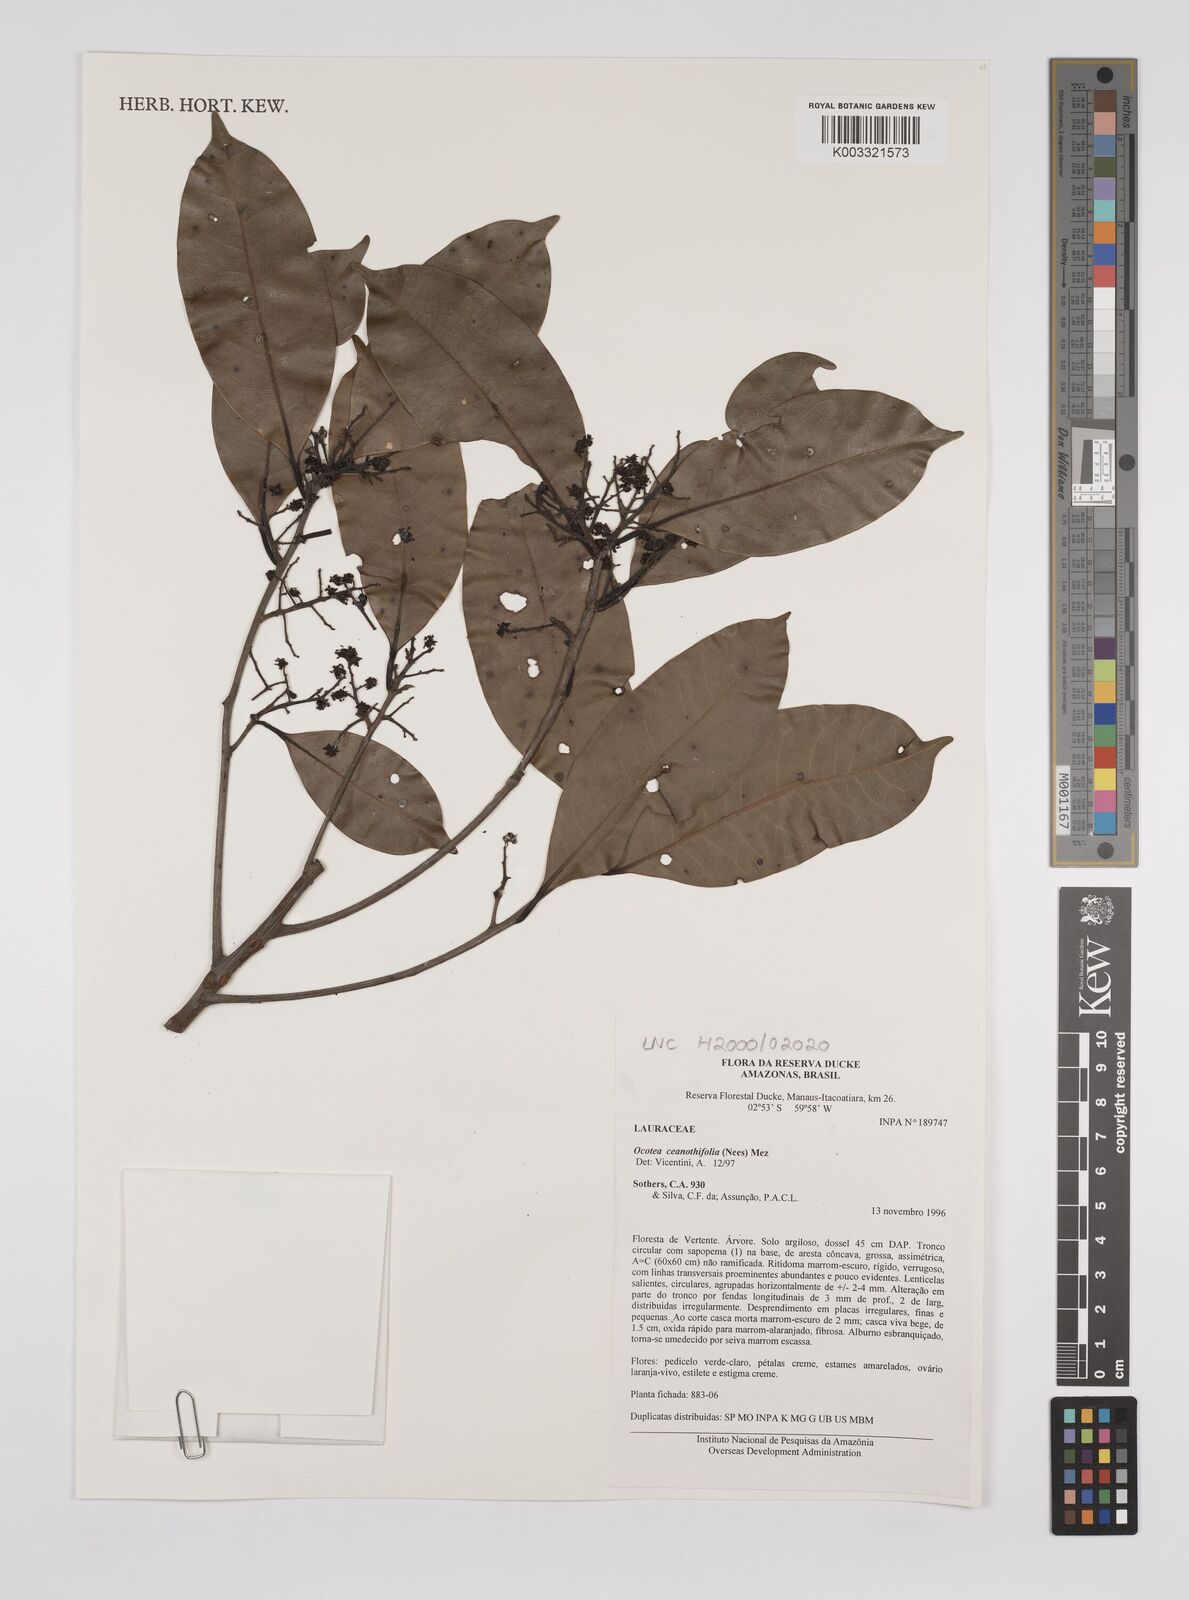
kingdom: Plantae
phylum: Tracheophyta
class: Magnoliopsida
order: Laurales
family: Lauraceae
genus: Mespilodaphne
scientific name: Mespilodaphne ceanothifolia
